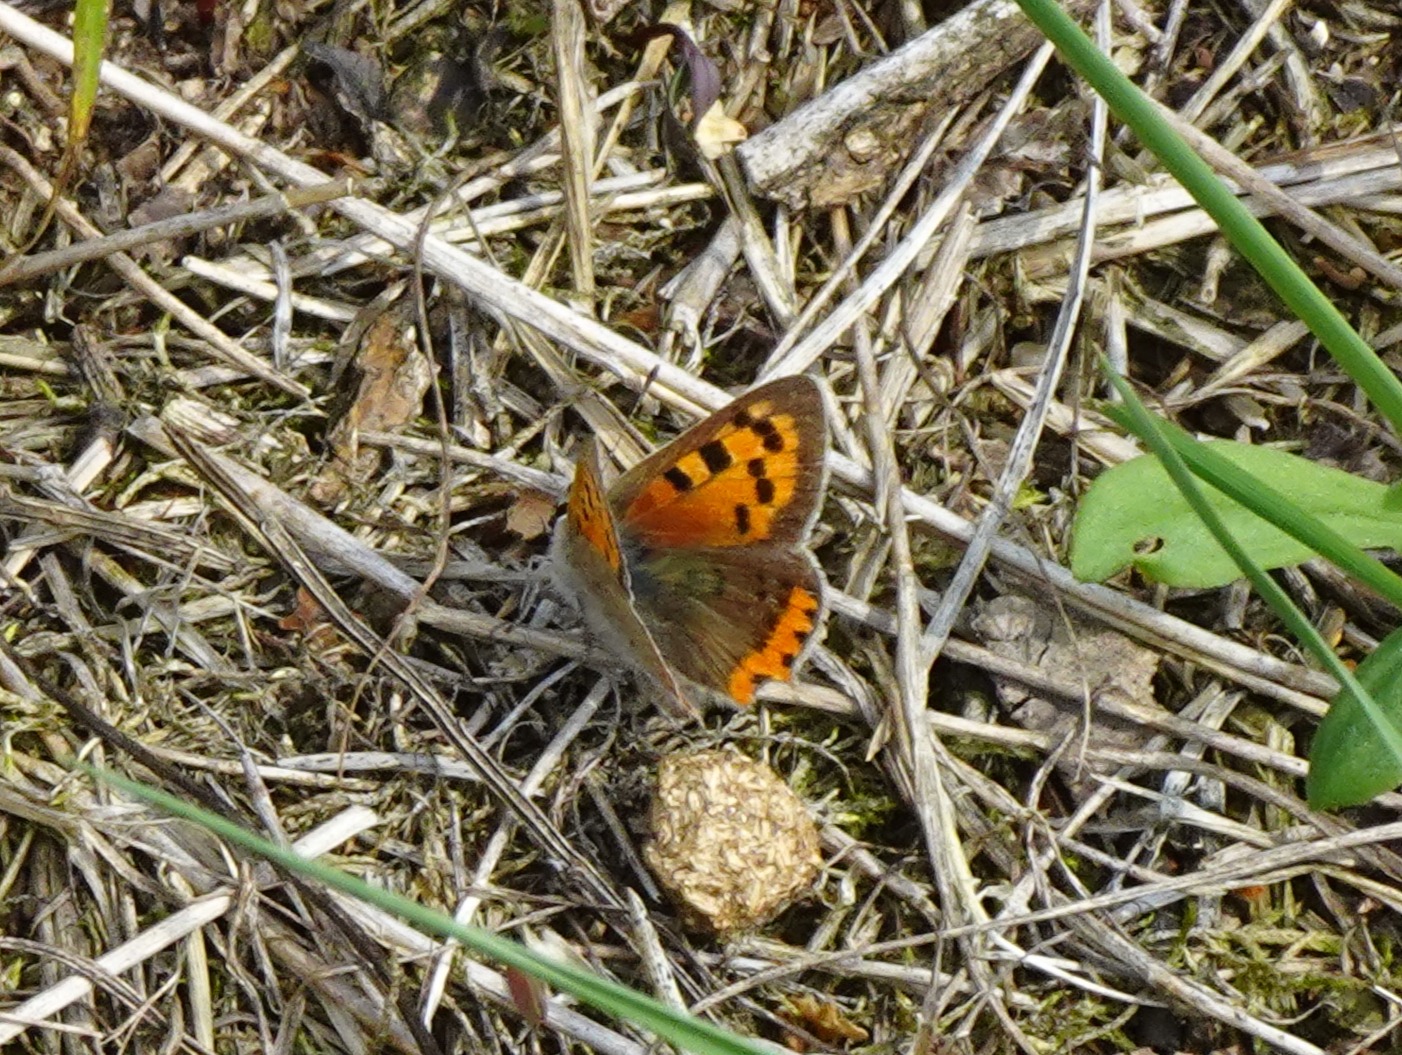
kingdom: Animalia
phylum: Arthropoda
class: Insecta
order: Lepidoptera
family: Lycaenidae
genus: Lycaena
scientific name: Lycaena phlaeas
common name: Lille ildfugl
